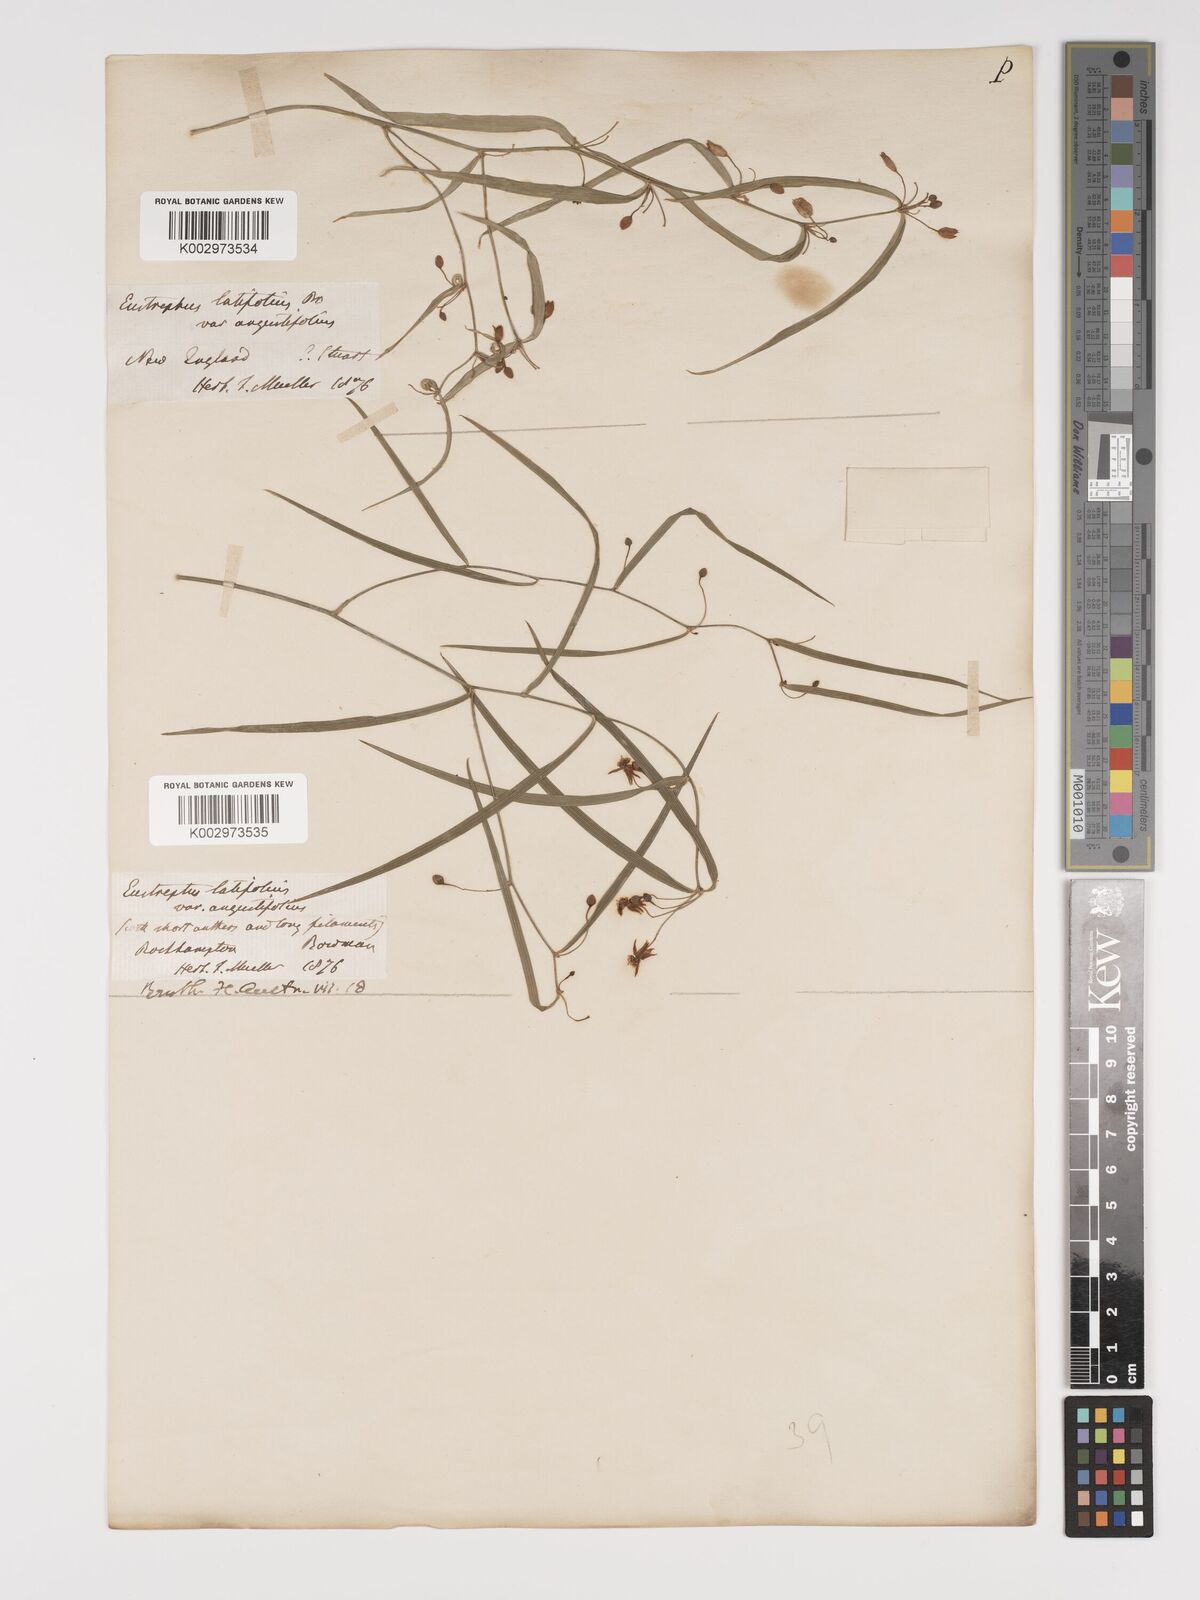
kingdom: Plantae
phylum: Tracheophyta
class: Liliopsida
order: Asparagales
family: Asparagaceae
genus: Eustrephus
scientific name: Eustrephus latifolius
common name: Orangevine
